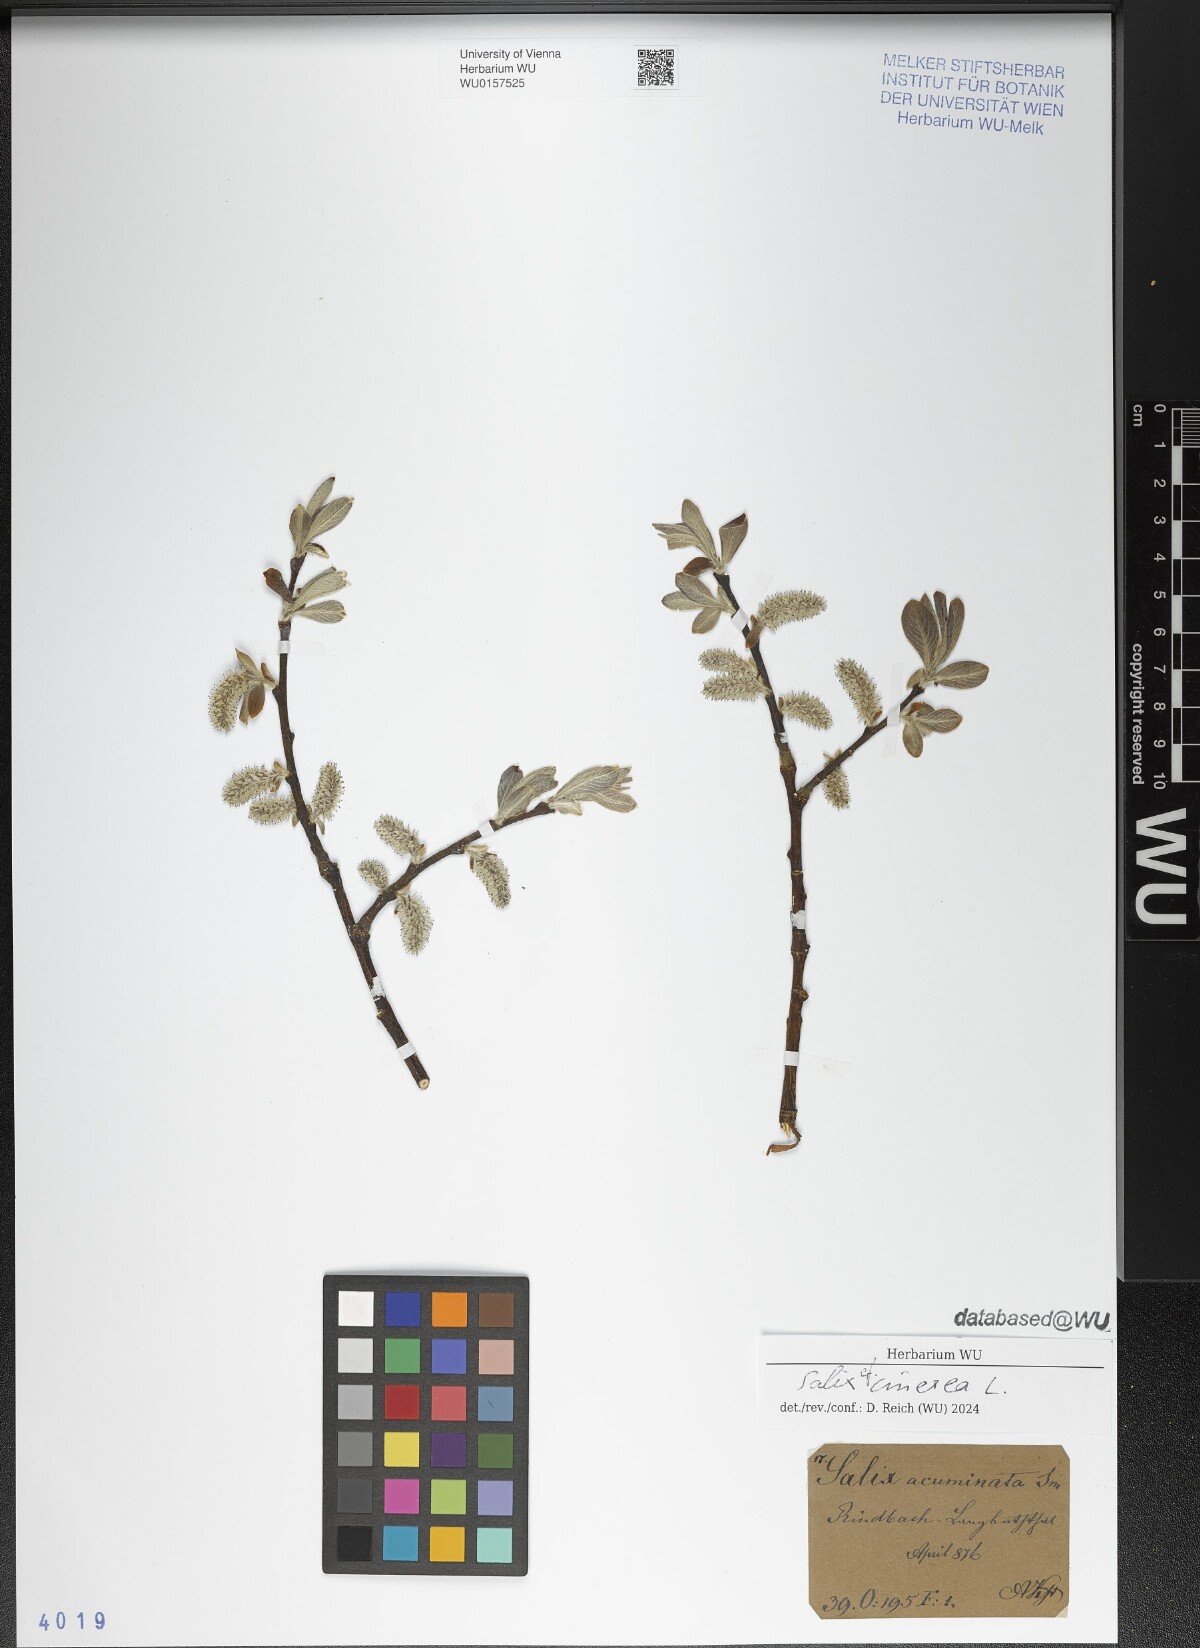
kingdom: Plantae
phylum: Tracheophyta
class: Magnoliopsida
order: Malpighiales
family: Salicaceae
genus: Salix
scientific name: Salix cinerea
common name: Common sallow
